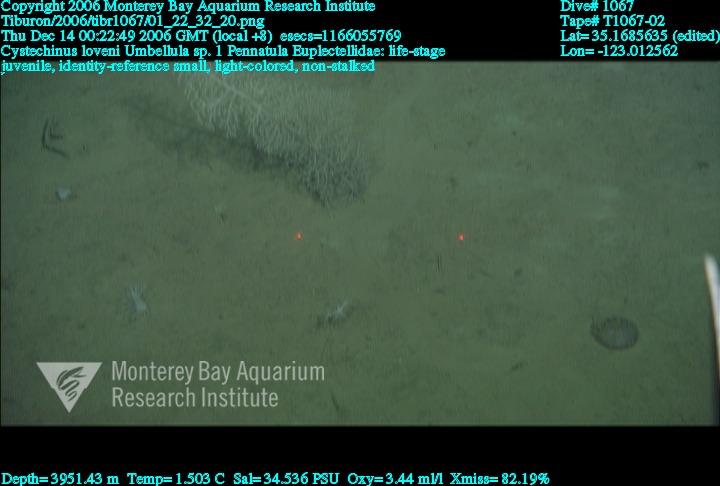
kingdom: Animalia
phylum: Porifera
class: Hexactinellida
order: Lyssacinosida
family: Euplectellidae
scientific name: Euplectellidae
